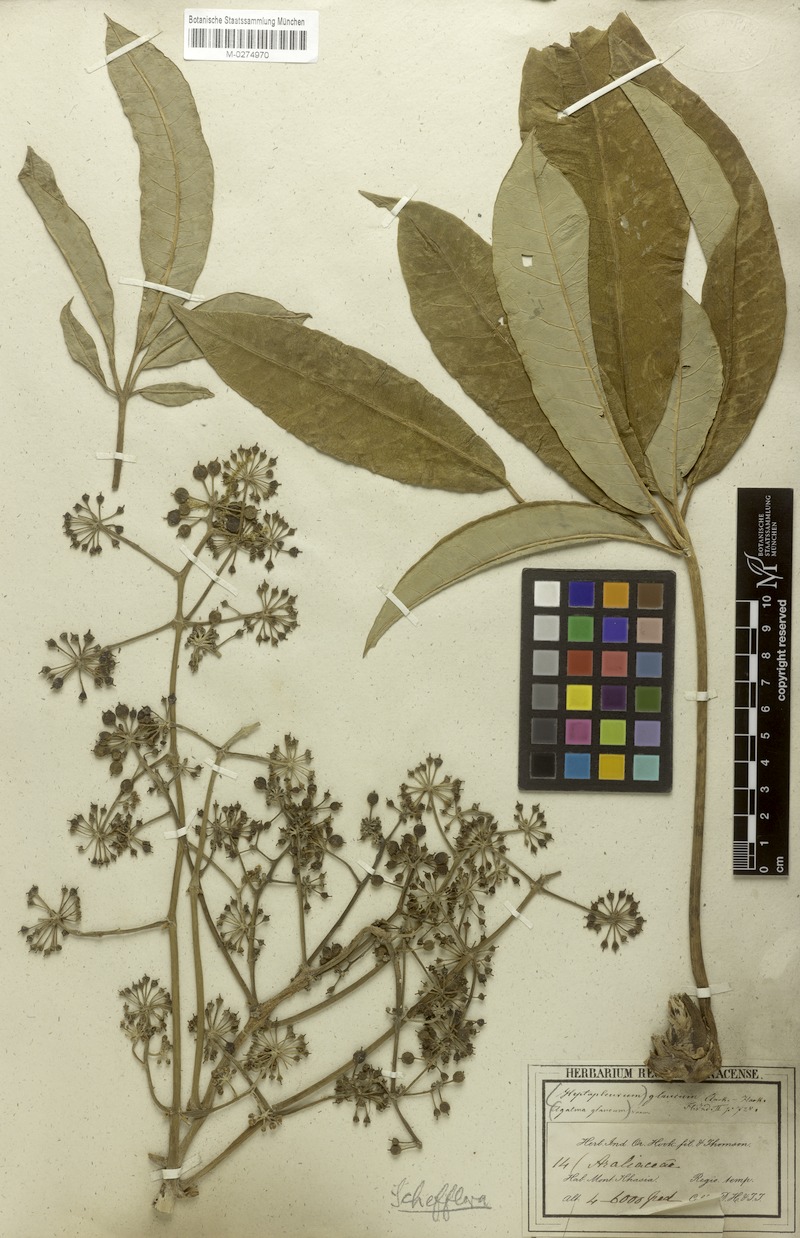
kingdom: Plantae
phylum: Tracheophyta
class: Magnoliopsida
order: Apiales
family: Araliaceae
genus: Heptapleurum
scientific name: Heptapleurum rhododendrifolium
